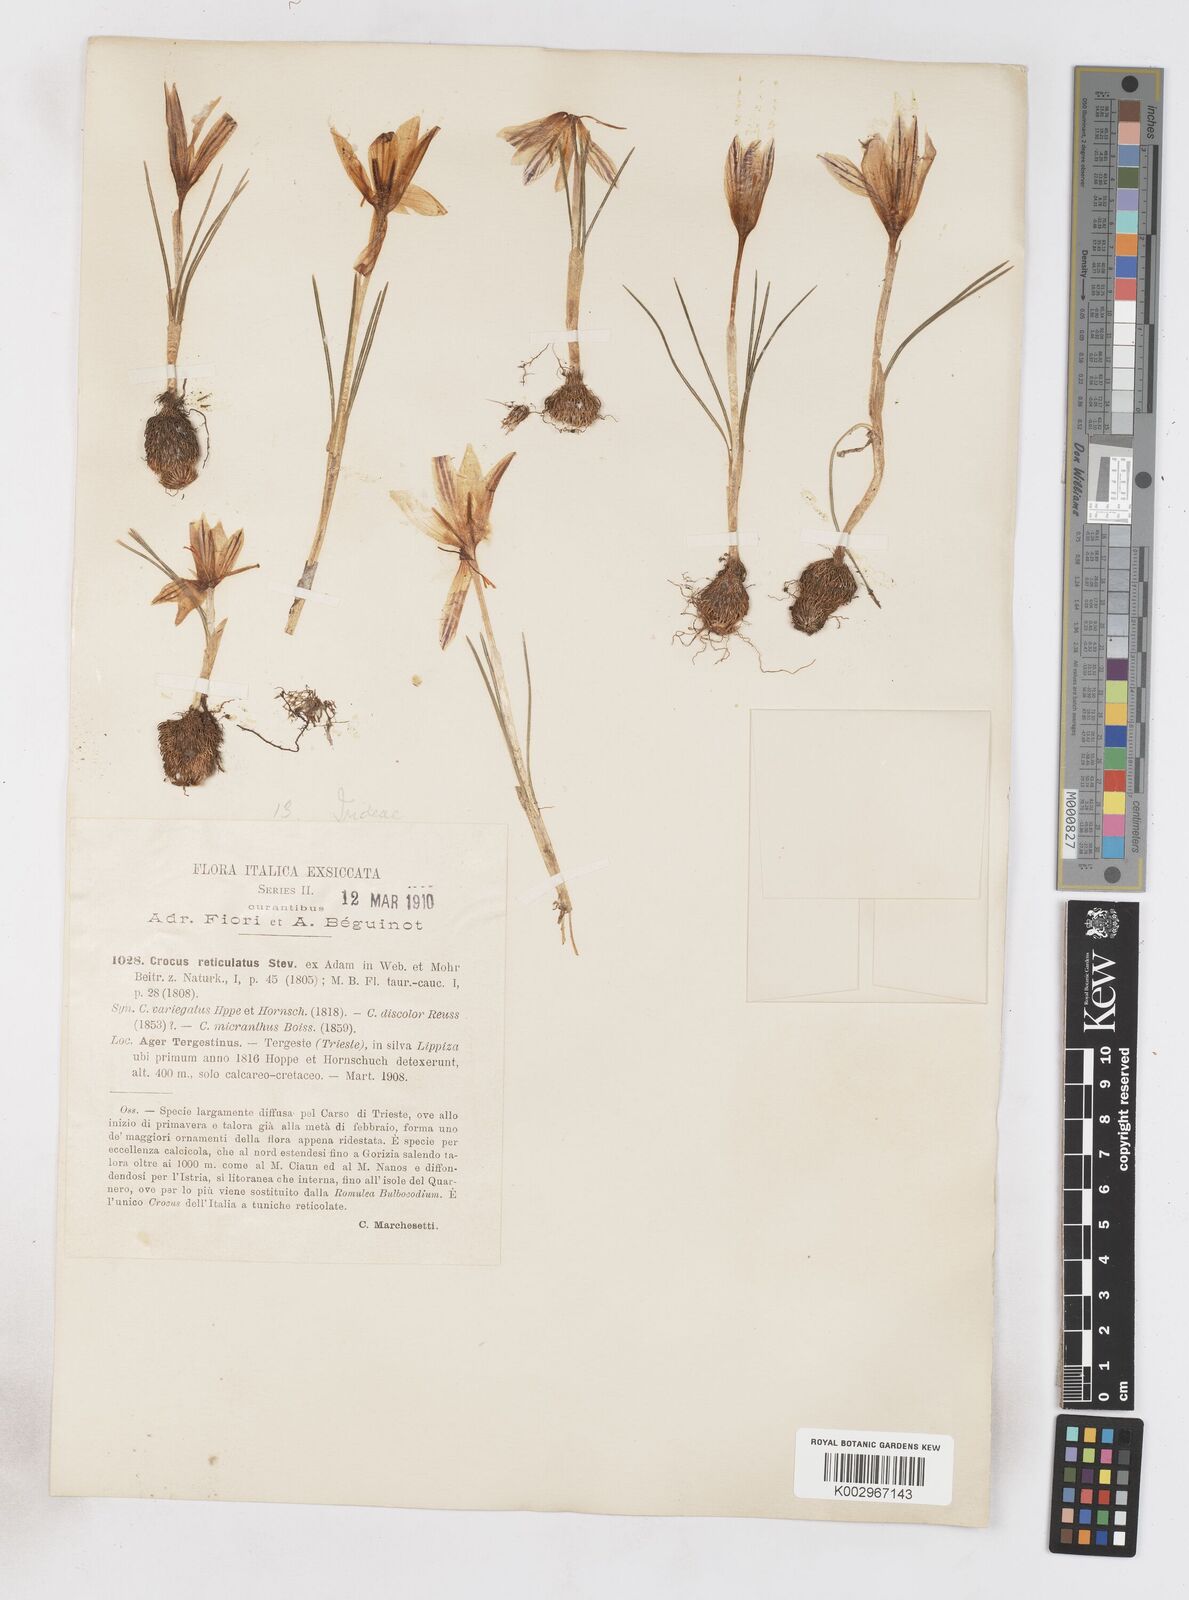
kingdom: Plantae
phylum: Tracheophyta
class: Liliopsida
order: Asparagales
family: Iridaceae
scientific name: Iridaceae
